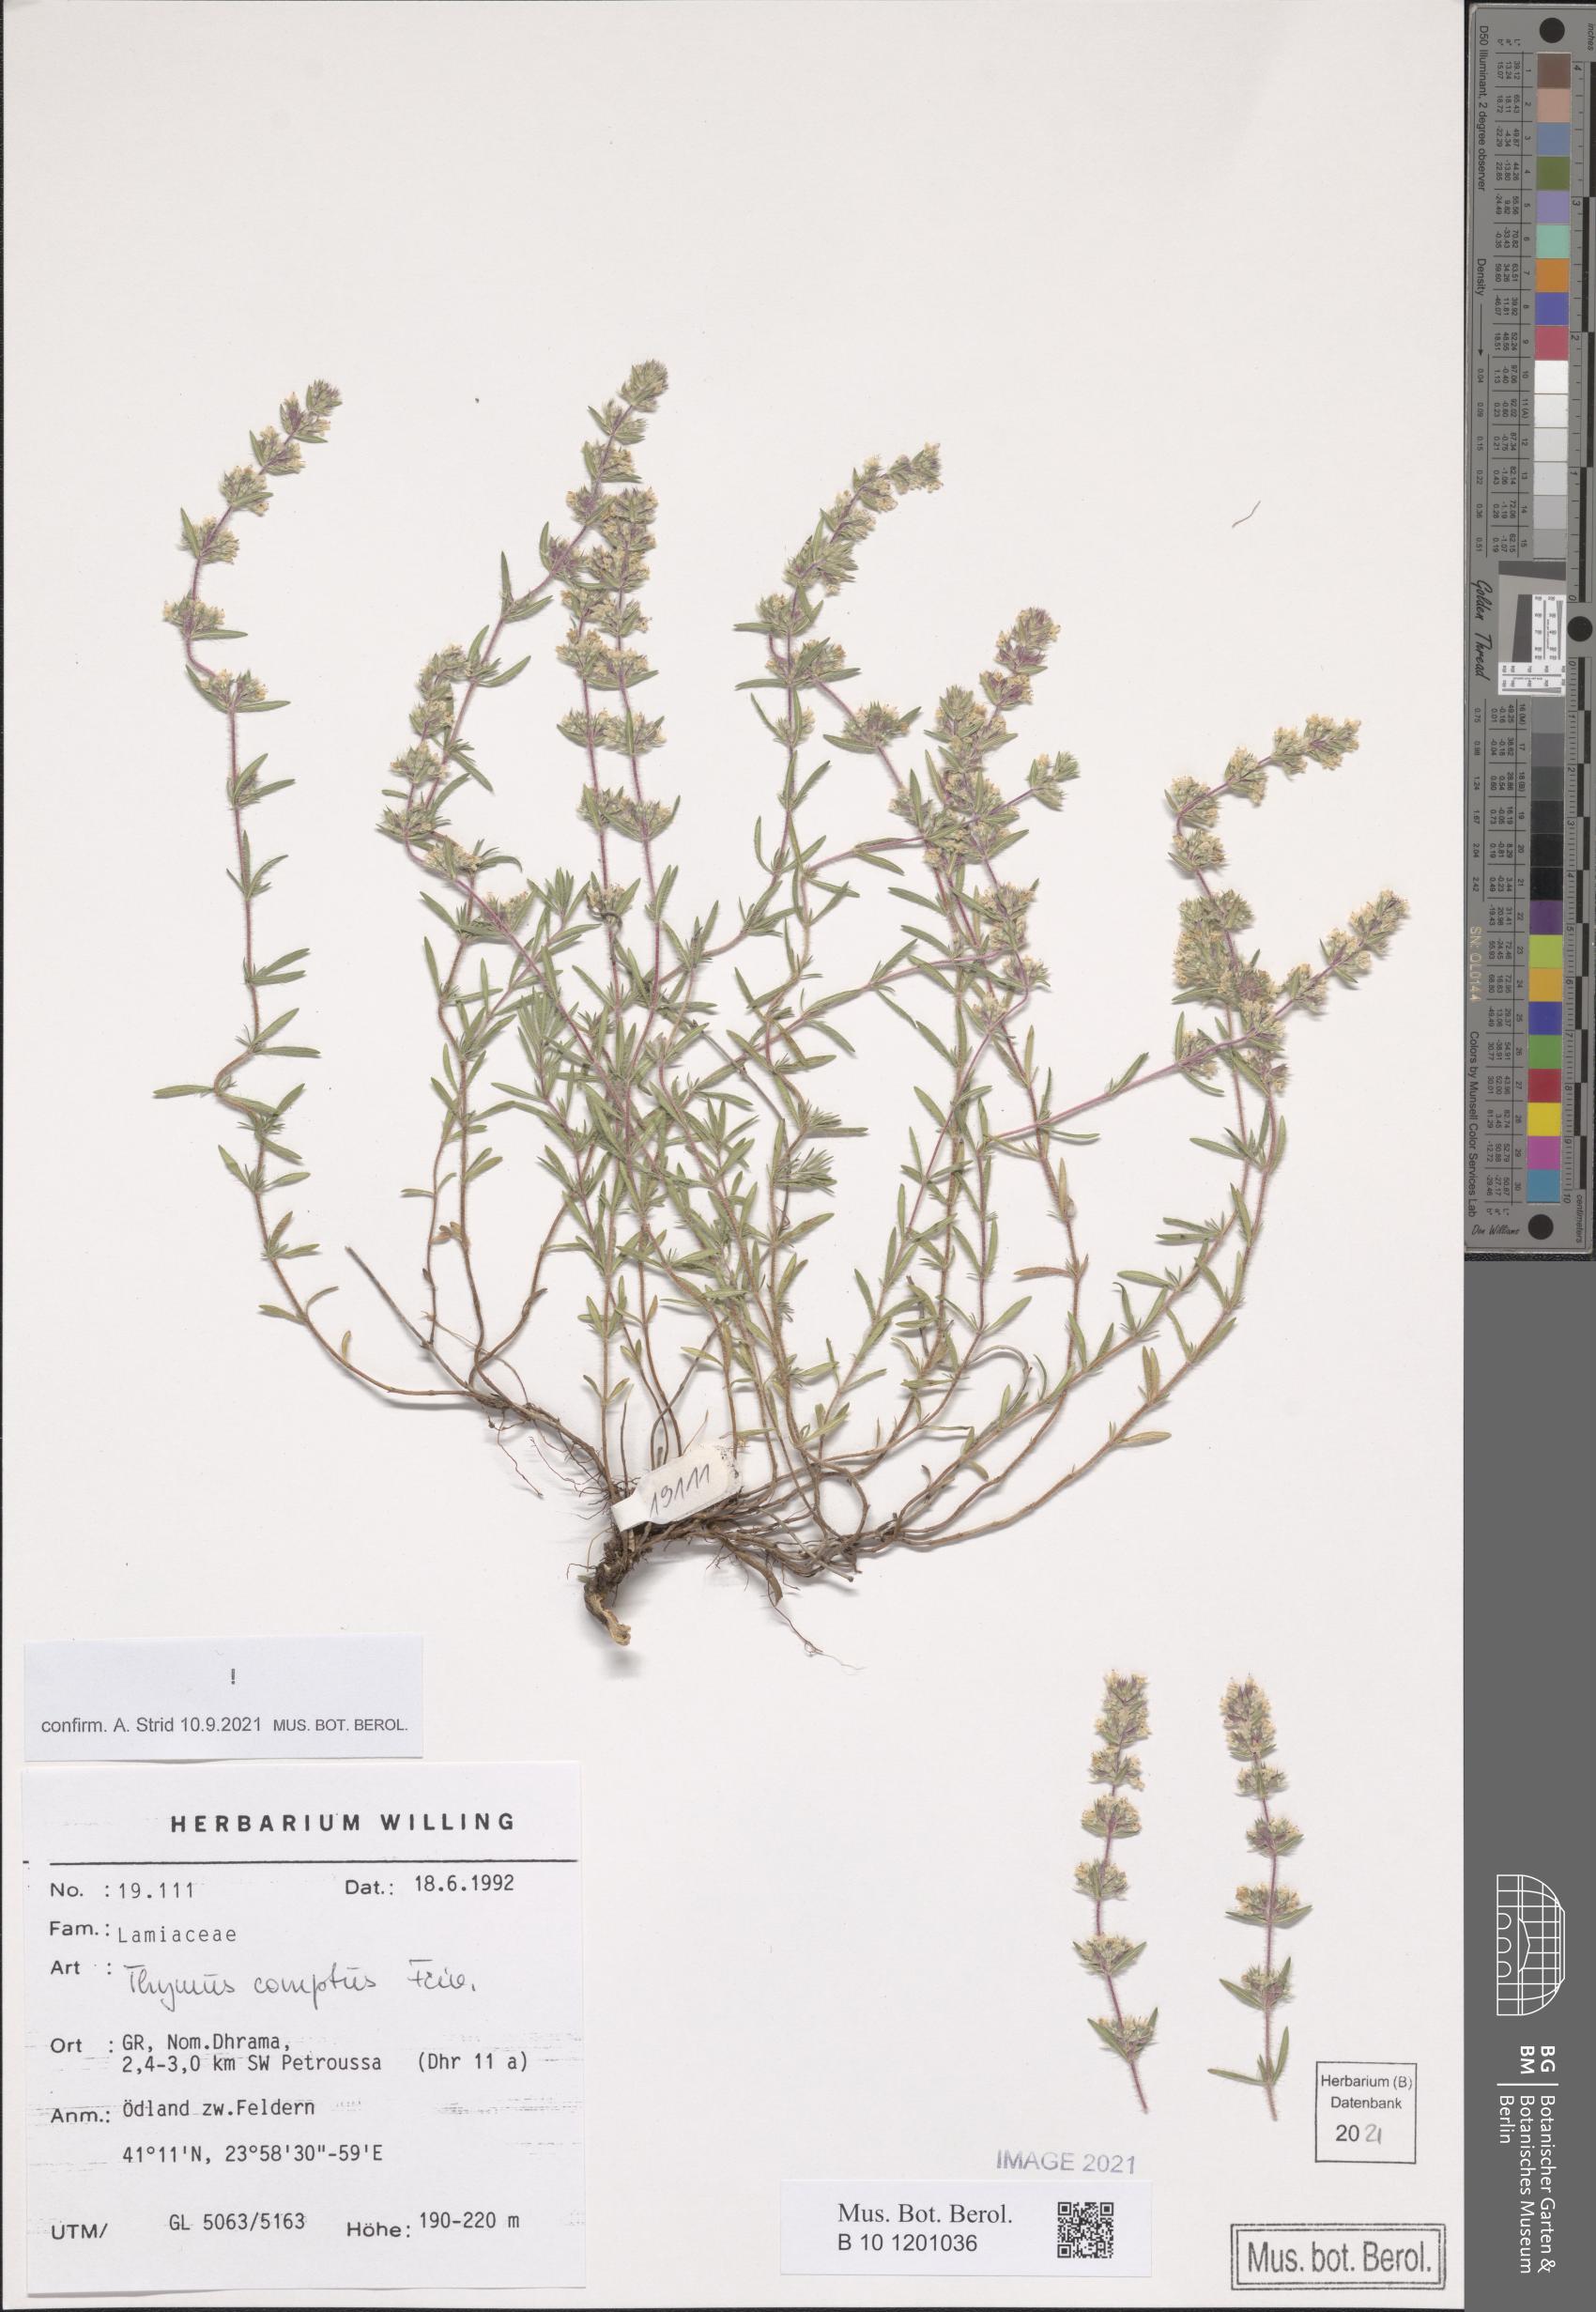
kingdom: Plantae
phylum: Tracheophyta
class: Magnoliopsida
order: Lamiales
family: Lamiaceae
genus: Thymus
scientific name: Thymus comptus
